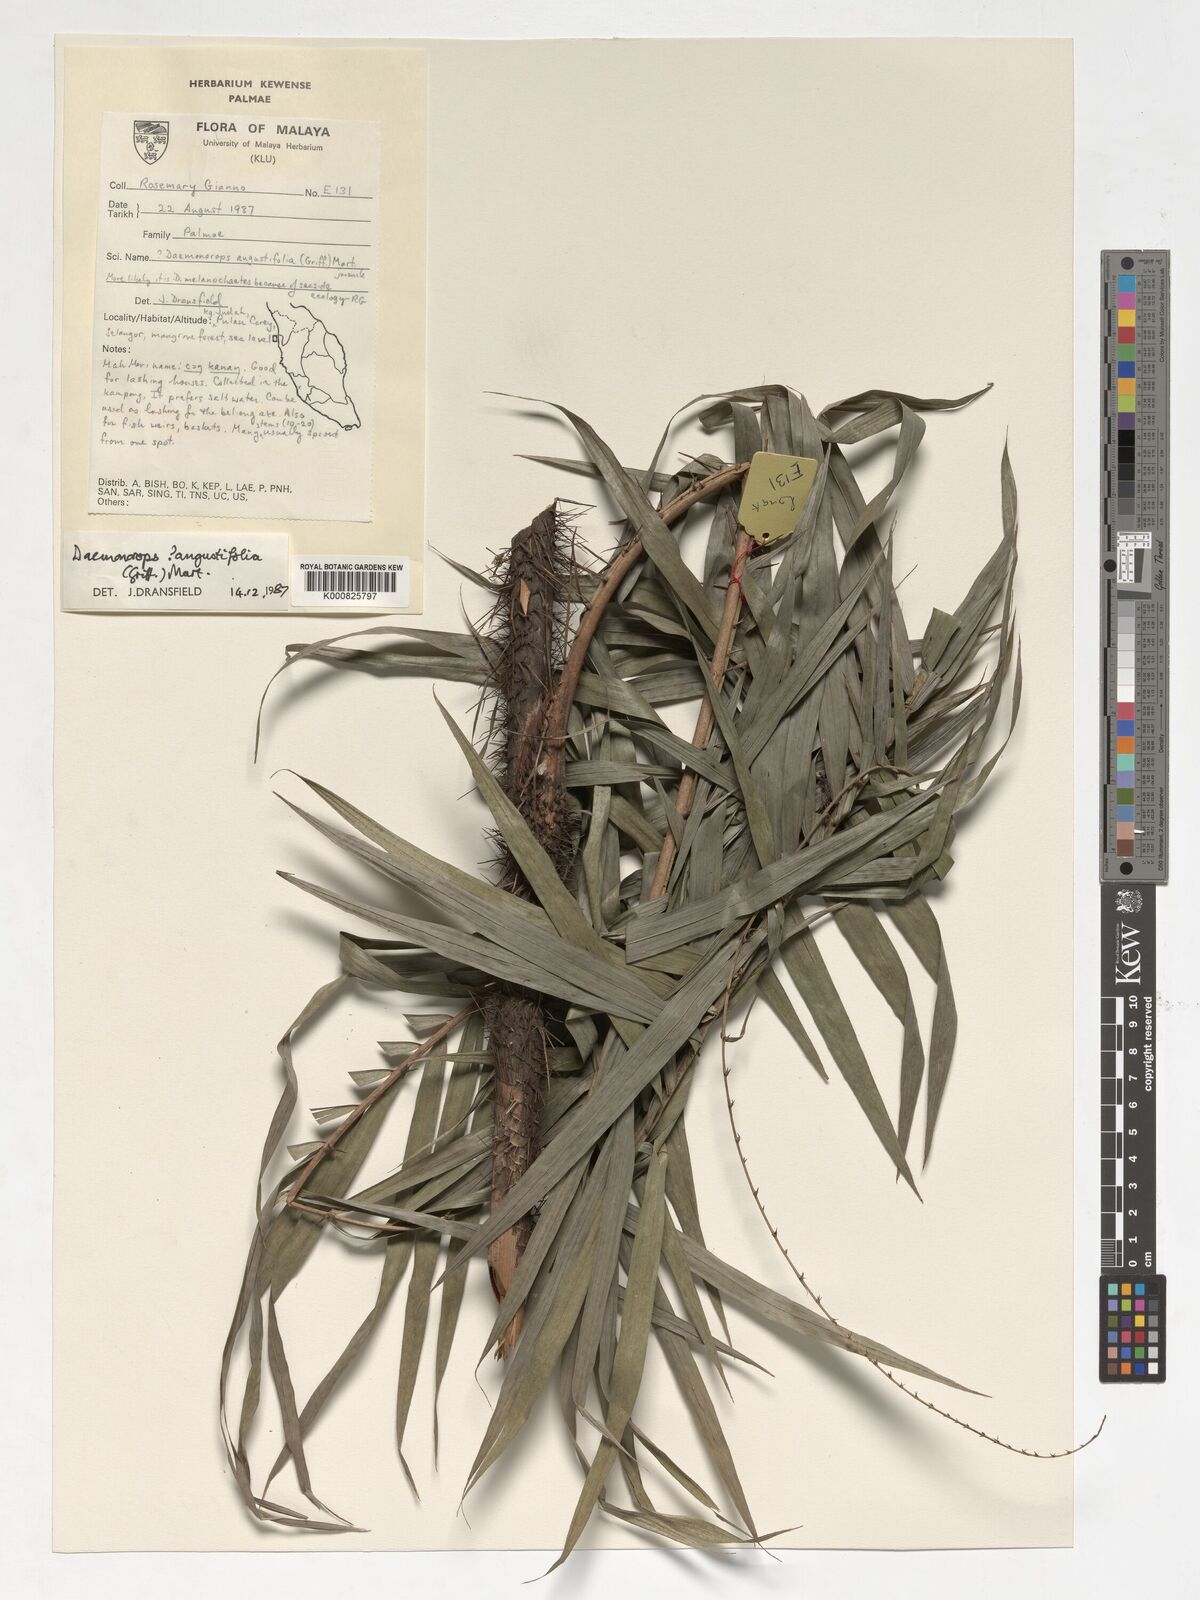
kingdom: Plantae
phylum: Tracheophyta
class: Liliopsida
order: Arecales
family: Arecaceae
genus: Daemonorops
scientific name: Daemonorops
